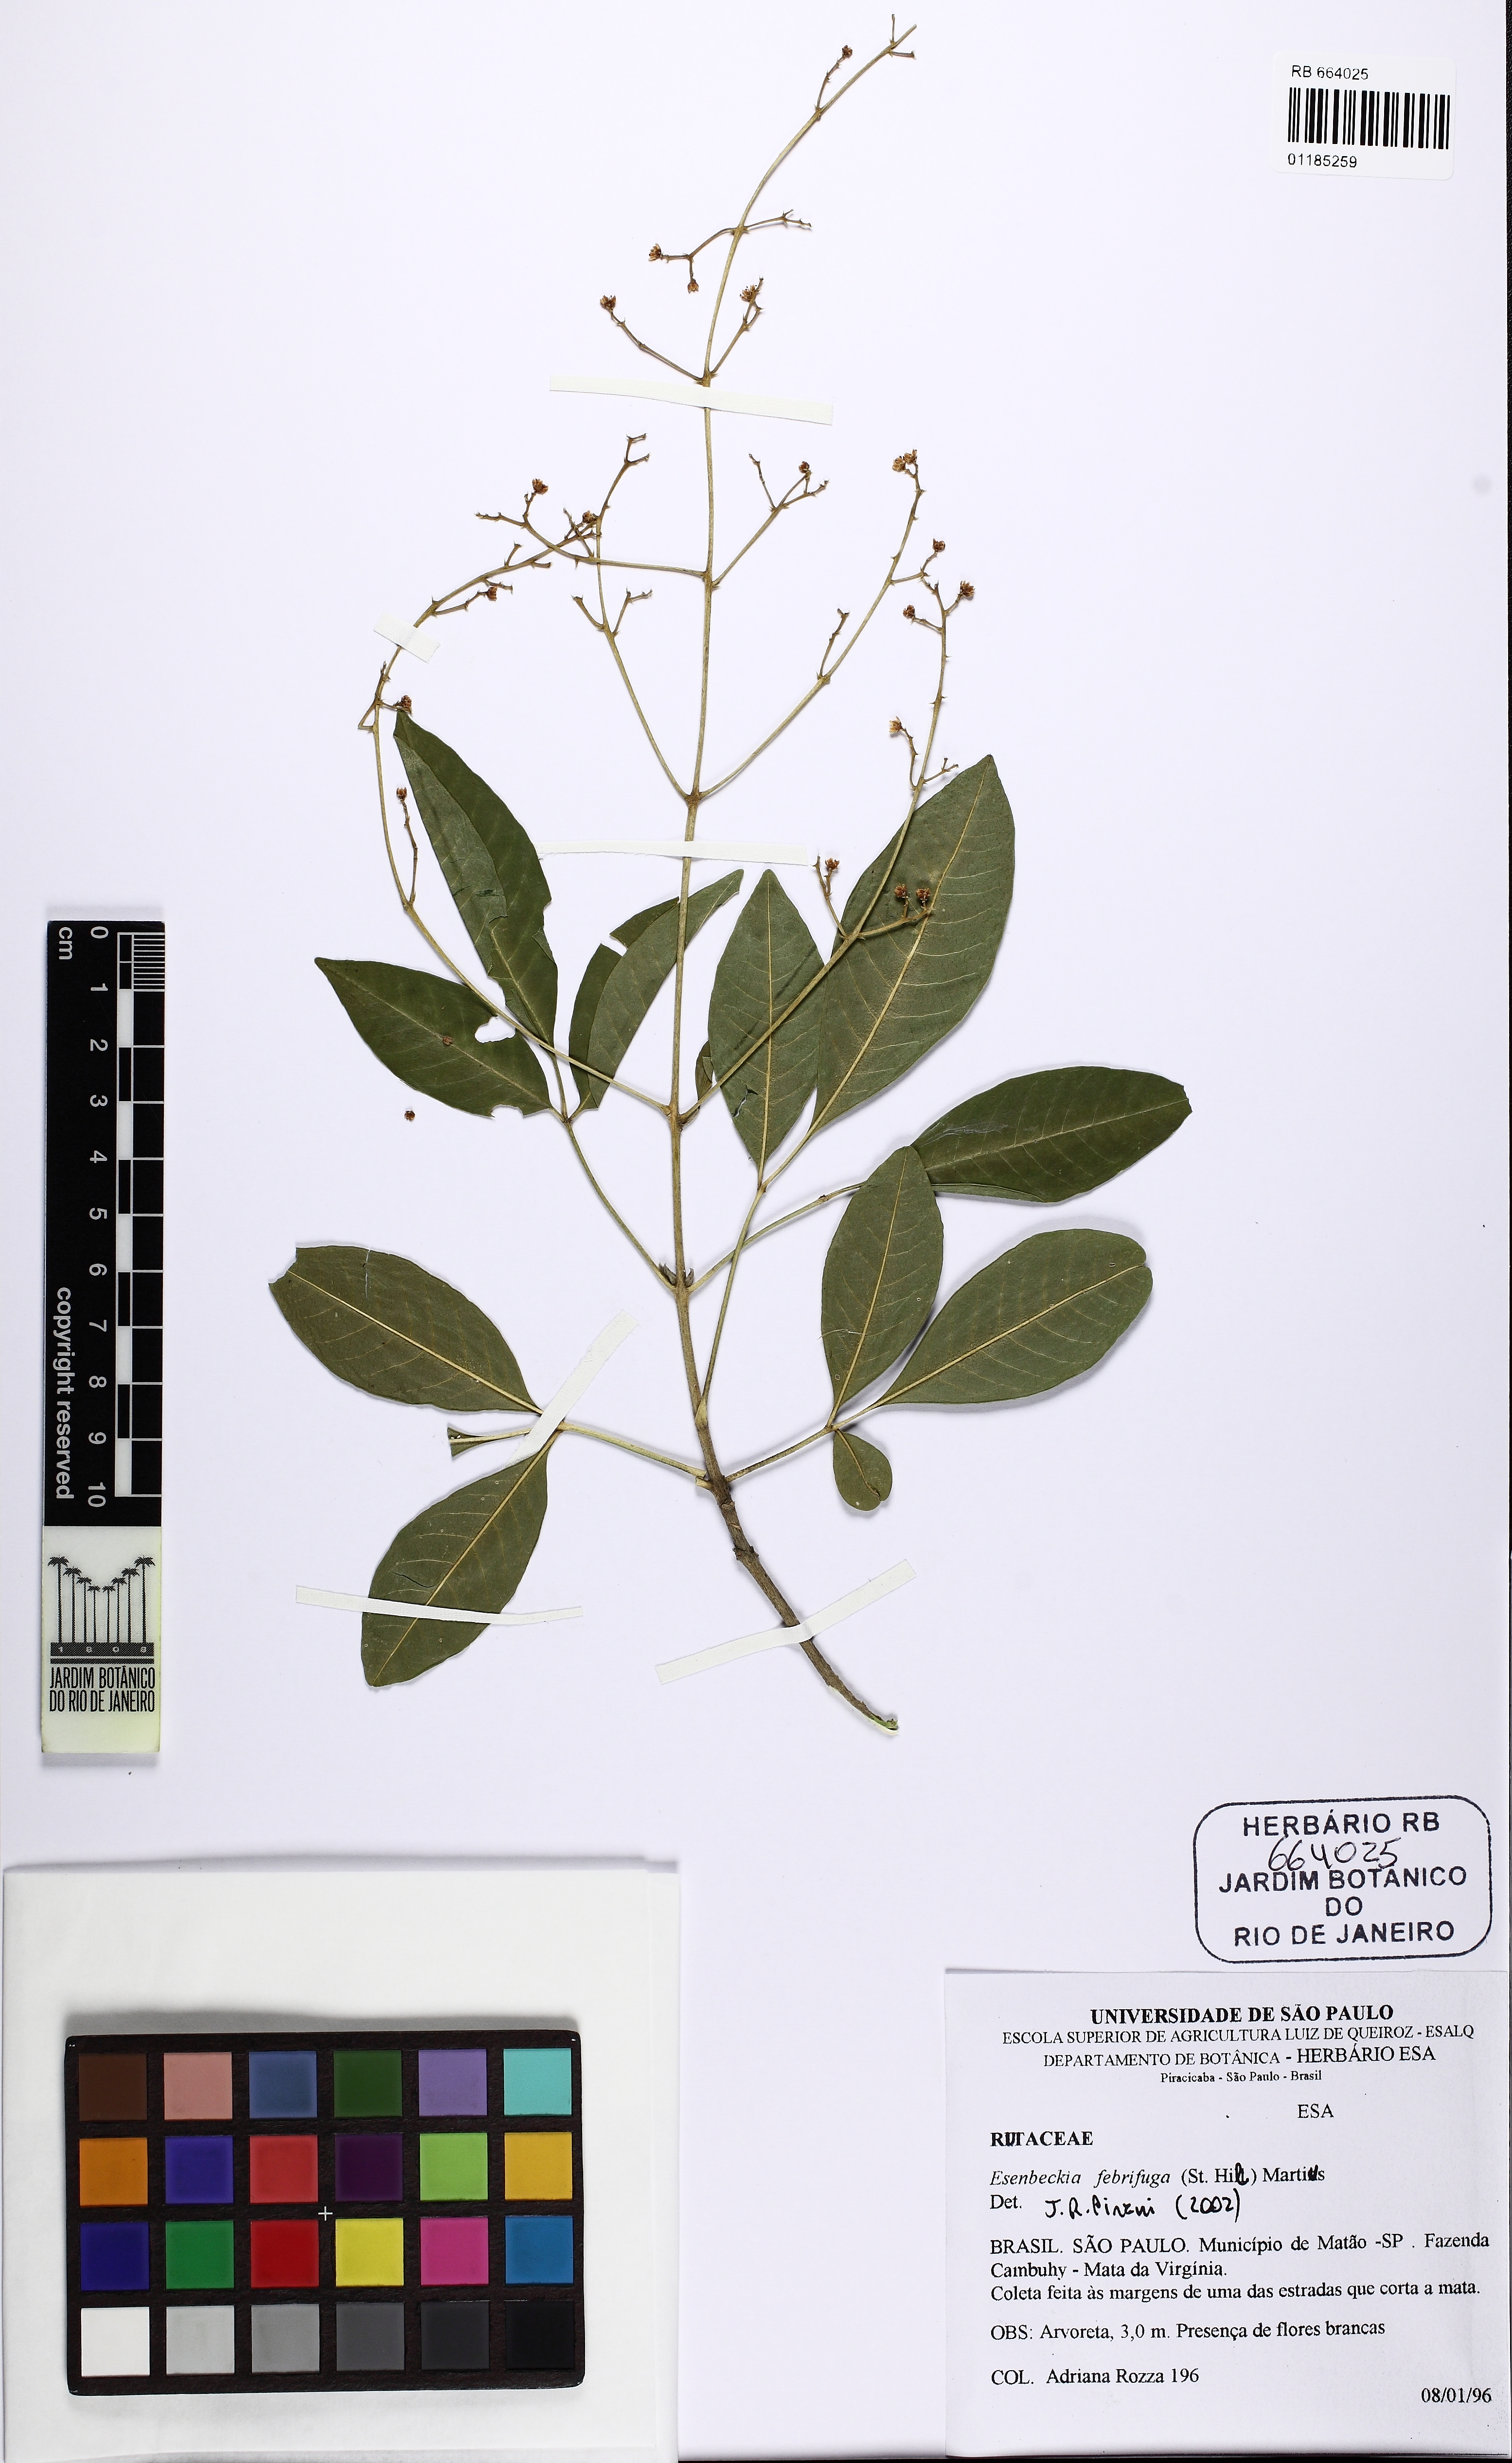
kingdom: Plantae
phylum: Tracheophyta
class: Magnoliopsida
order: Sapindales
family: Rutaceae
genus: Esenbeckia
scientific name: Esenbeckia febrifuga
